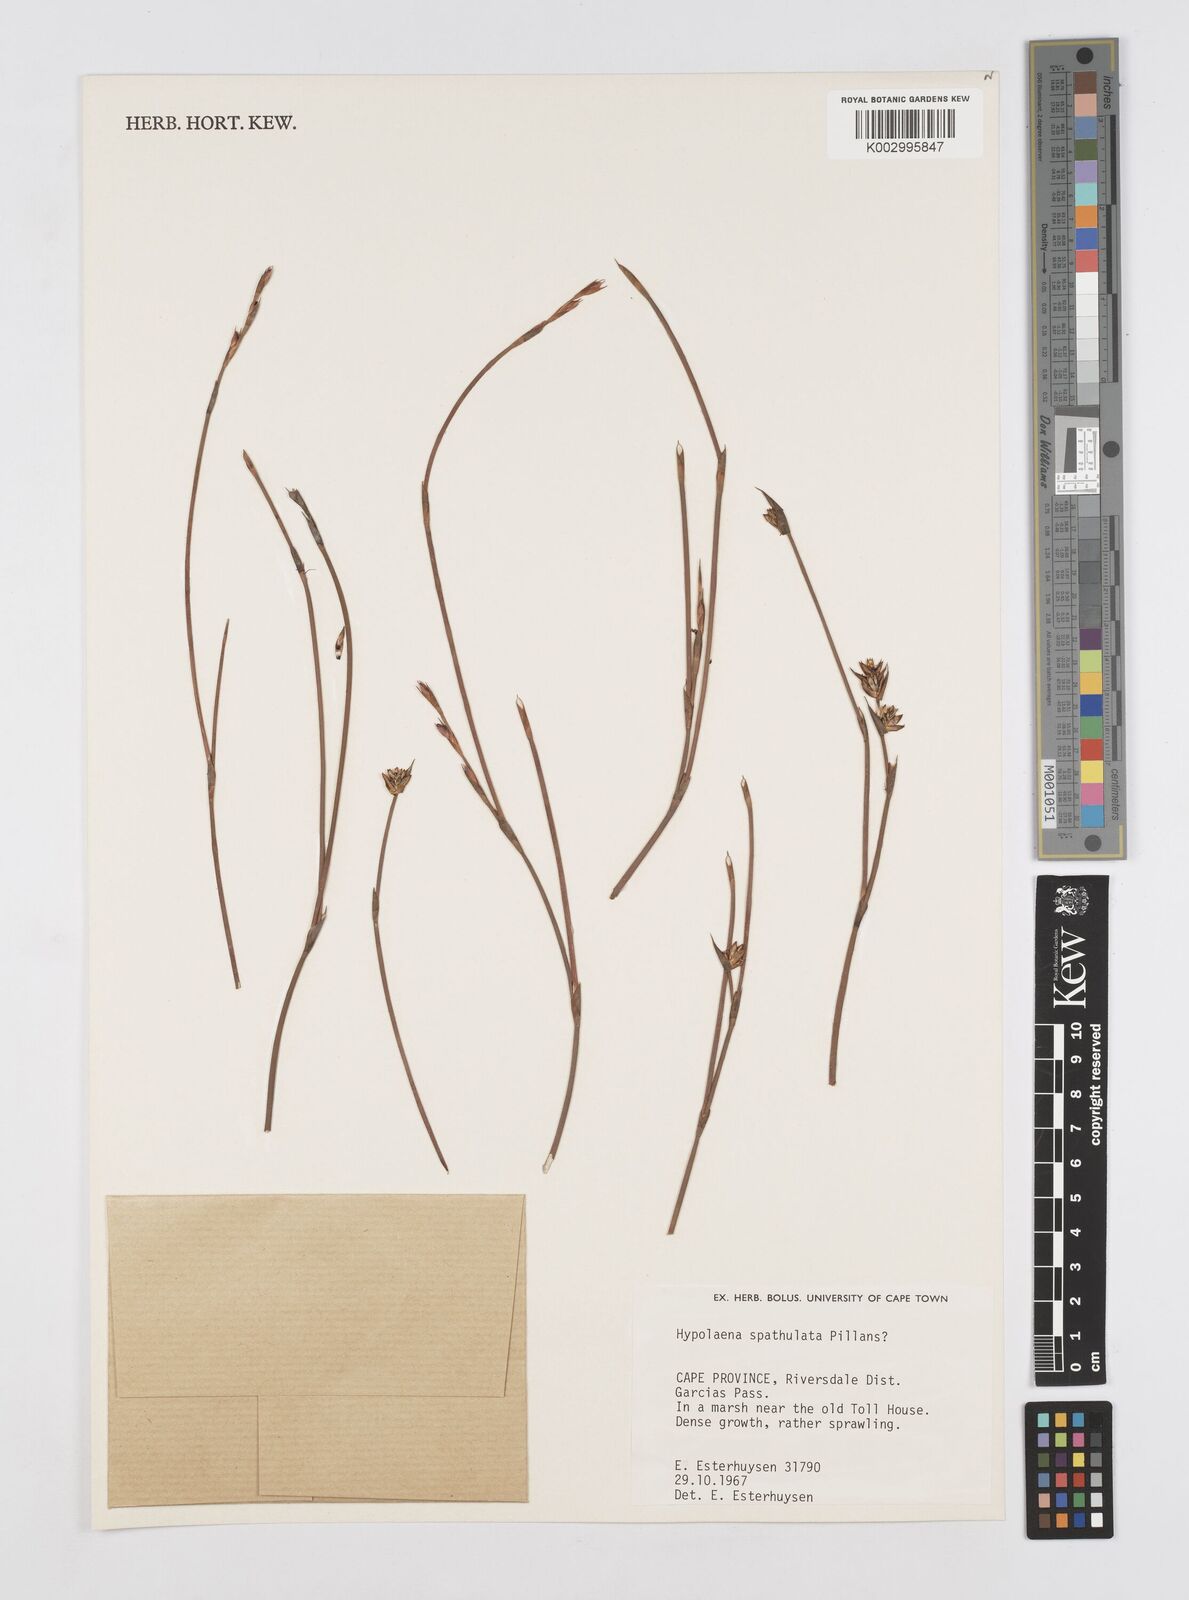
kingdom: Plantae
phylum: Tracheophyta
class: Liliopsida
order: Poales
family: Restionaceae
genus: Mastersiella
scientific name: Mastersiella spathulata
